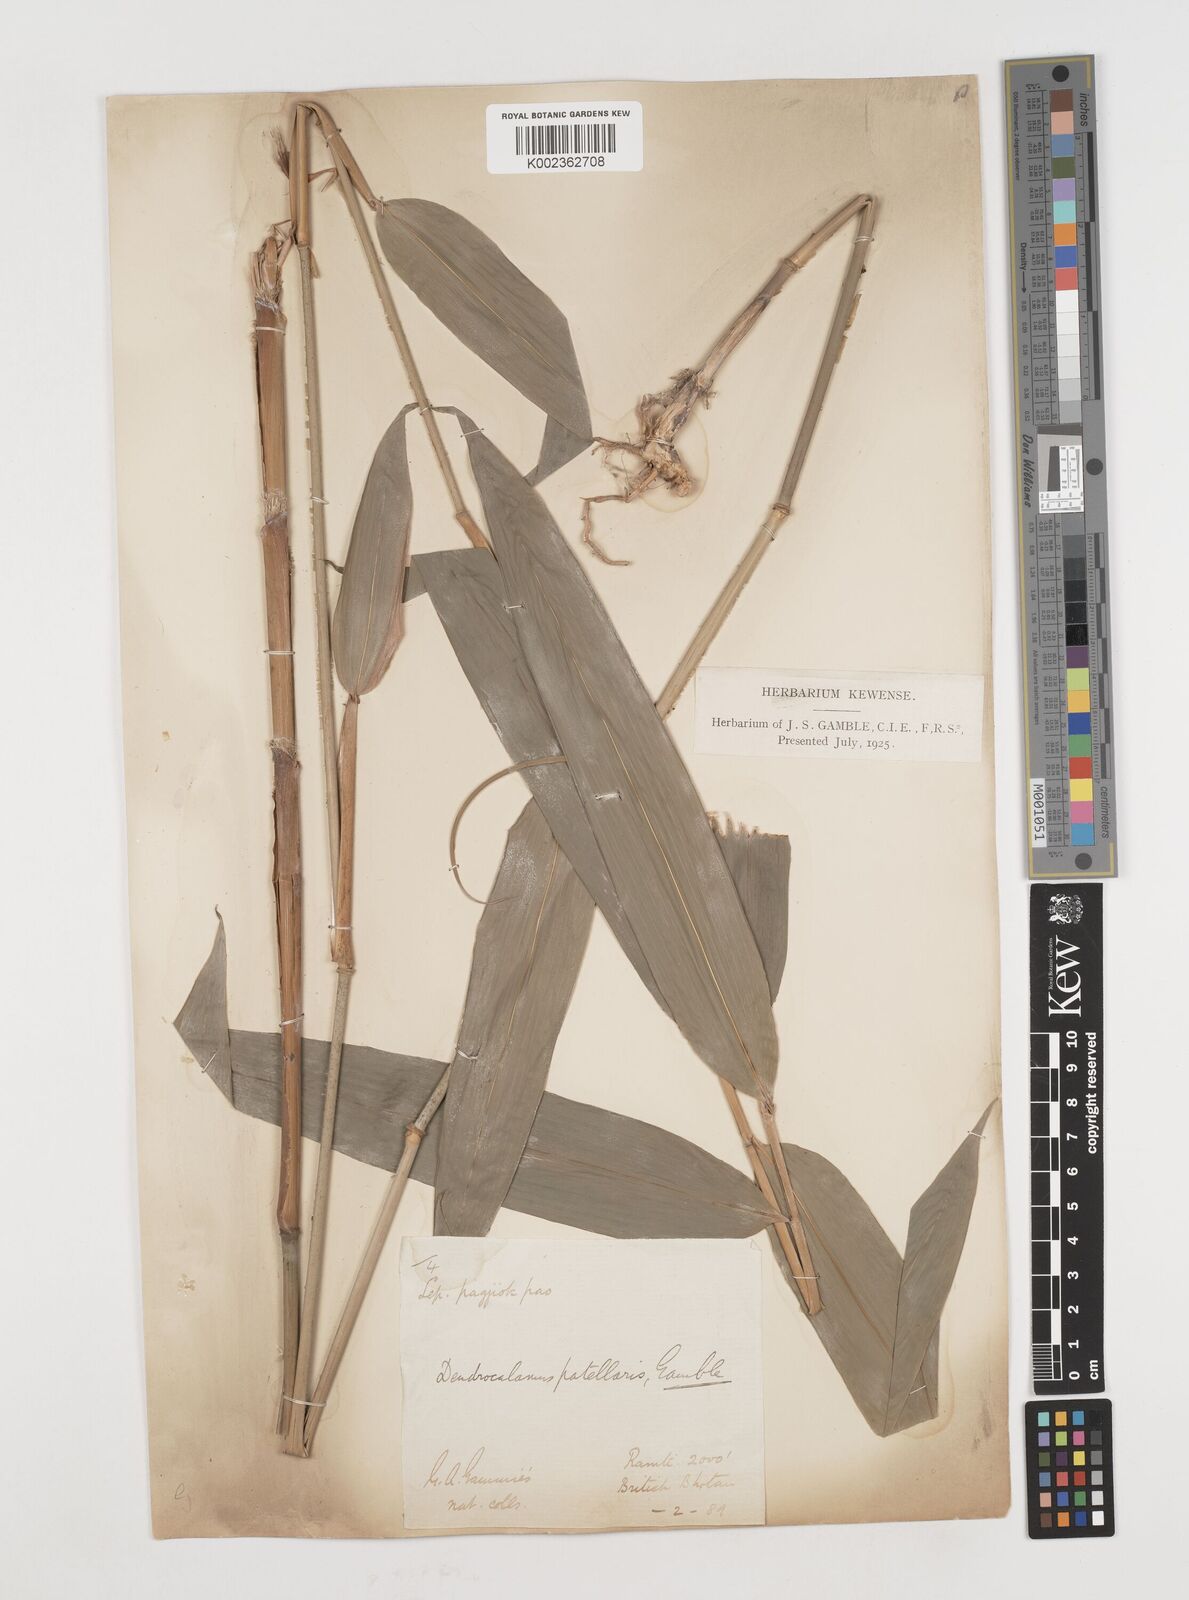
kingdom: Plantae
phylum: Tracheophyta
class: Liliopsida
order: Poales
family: Poaceae
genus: Ampelocalamus
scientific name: Ampelocalamus patellaris
